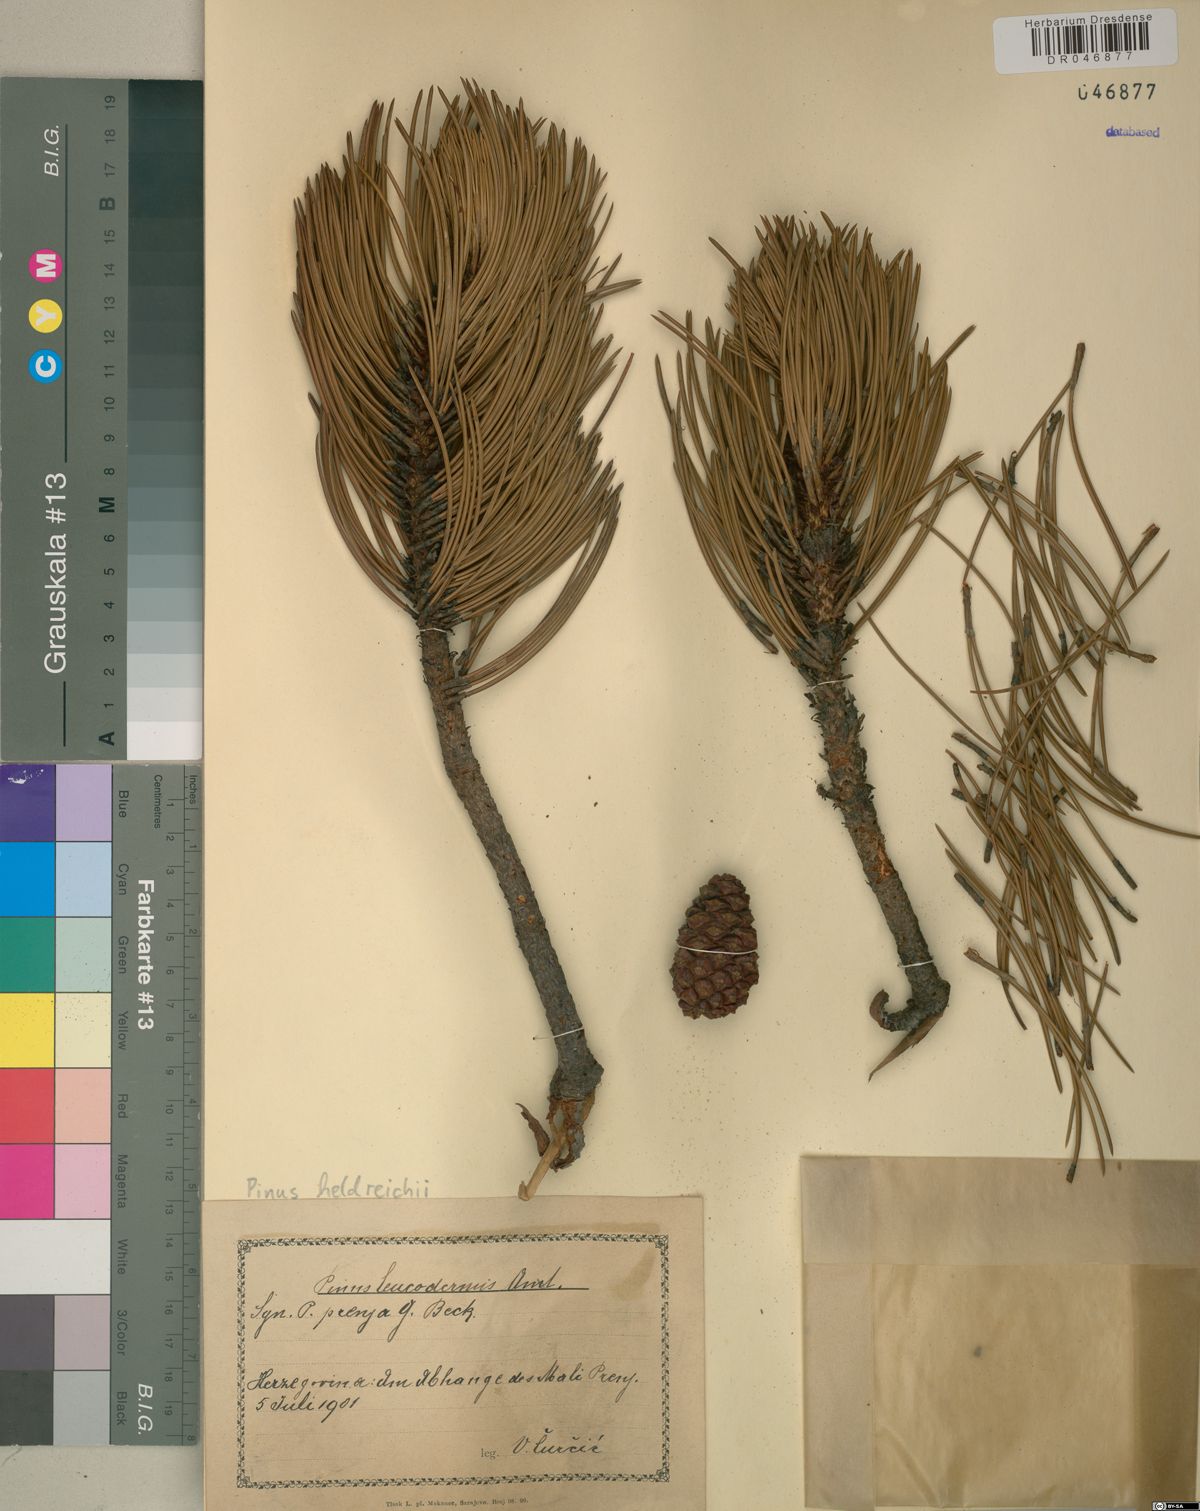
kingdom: Plantae
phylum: Tracheophyta
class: Pinopsida
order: Pinales
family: Pinaceae
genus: Pinus
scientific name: Pinus heldreichii
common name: Bosnian pine
